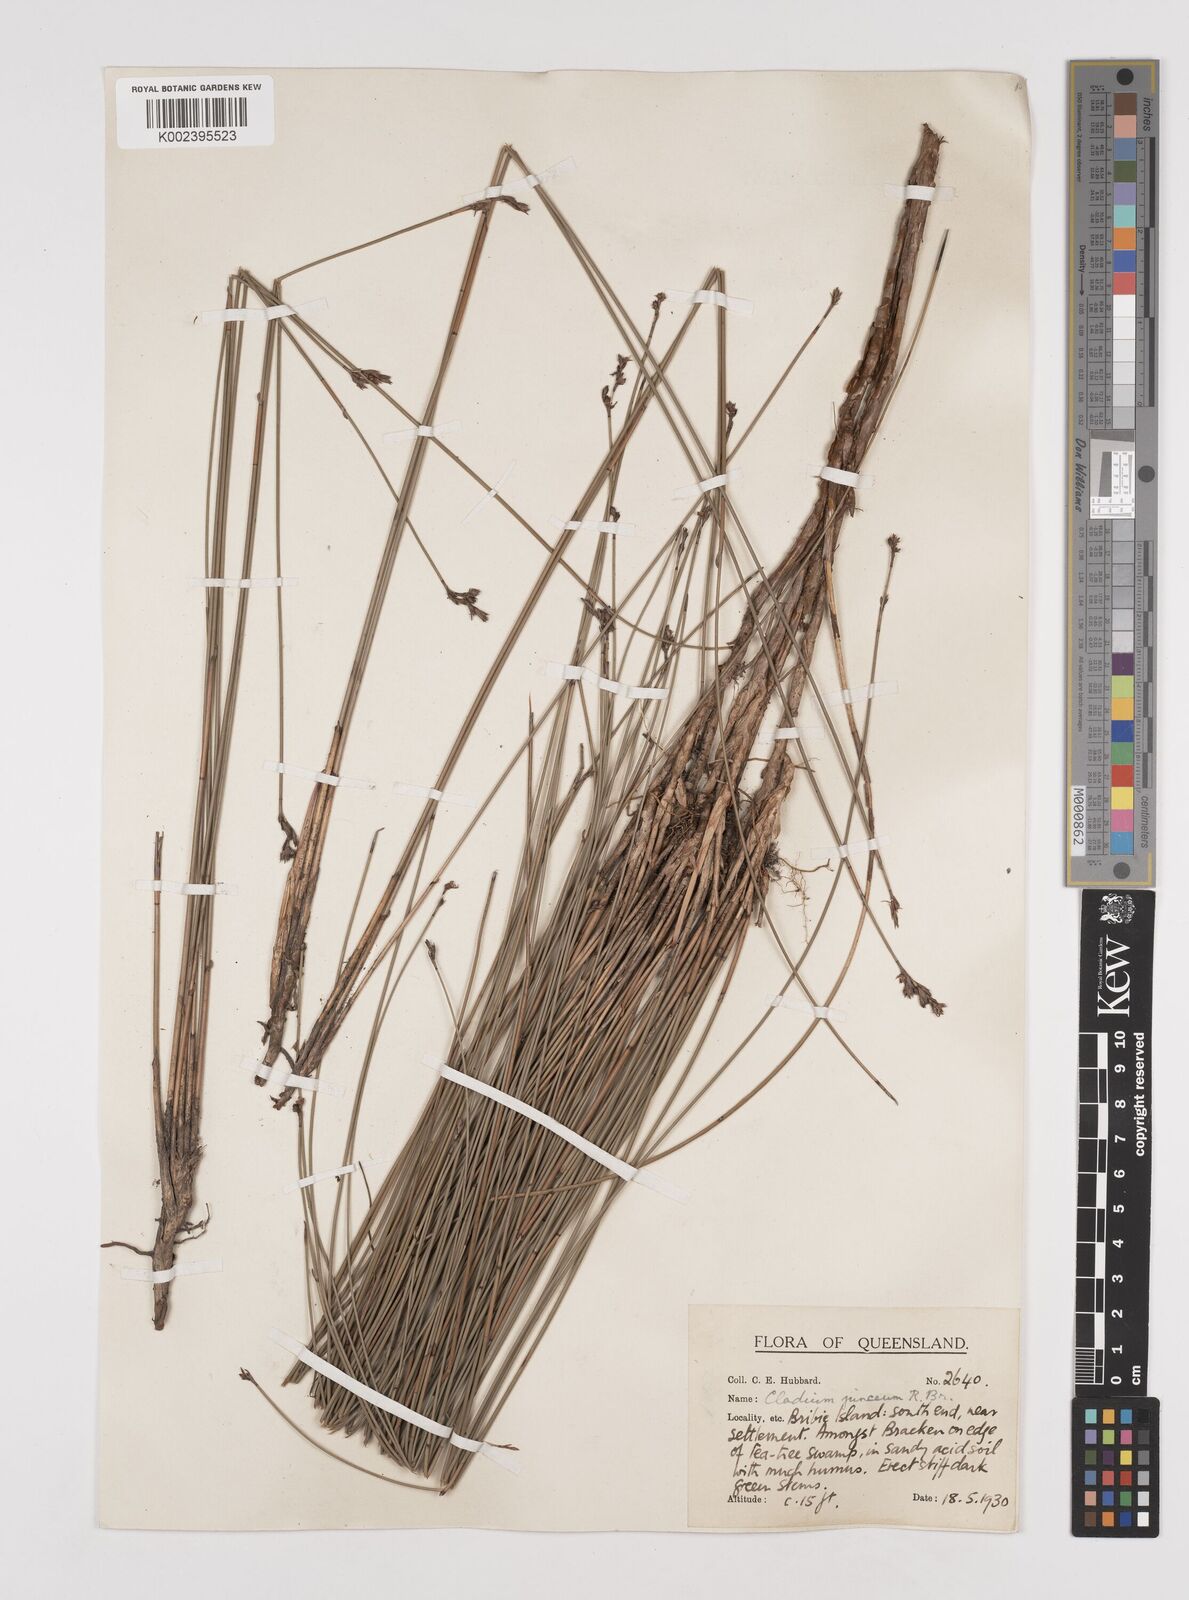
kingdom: Plantae
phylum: Tracheophyta
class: Liliopsida
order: Poales
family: Cyperaceae
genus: Machaerina
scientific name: Machaerina juncea
